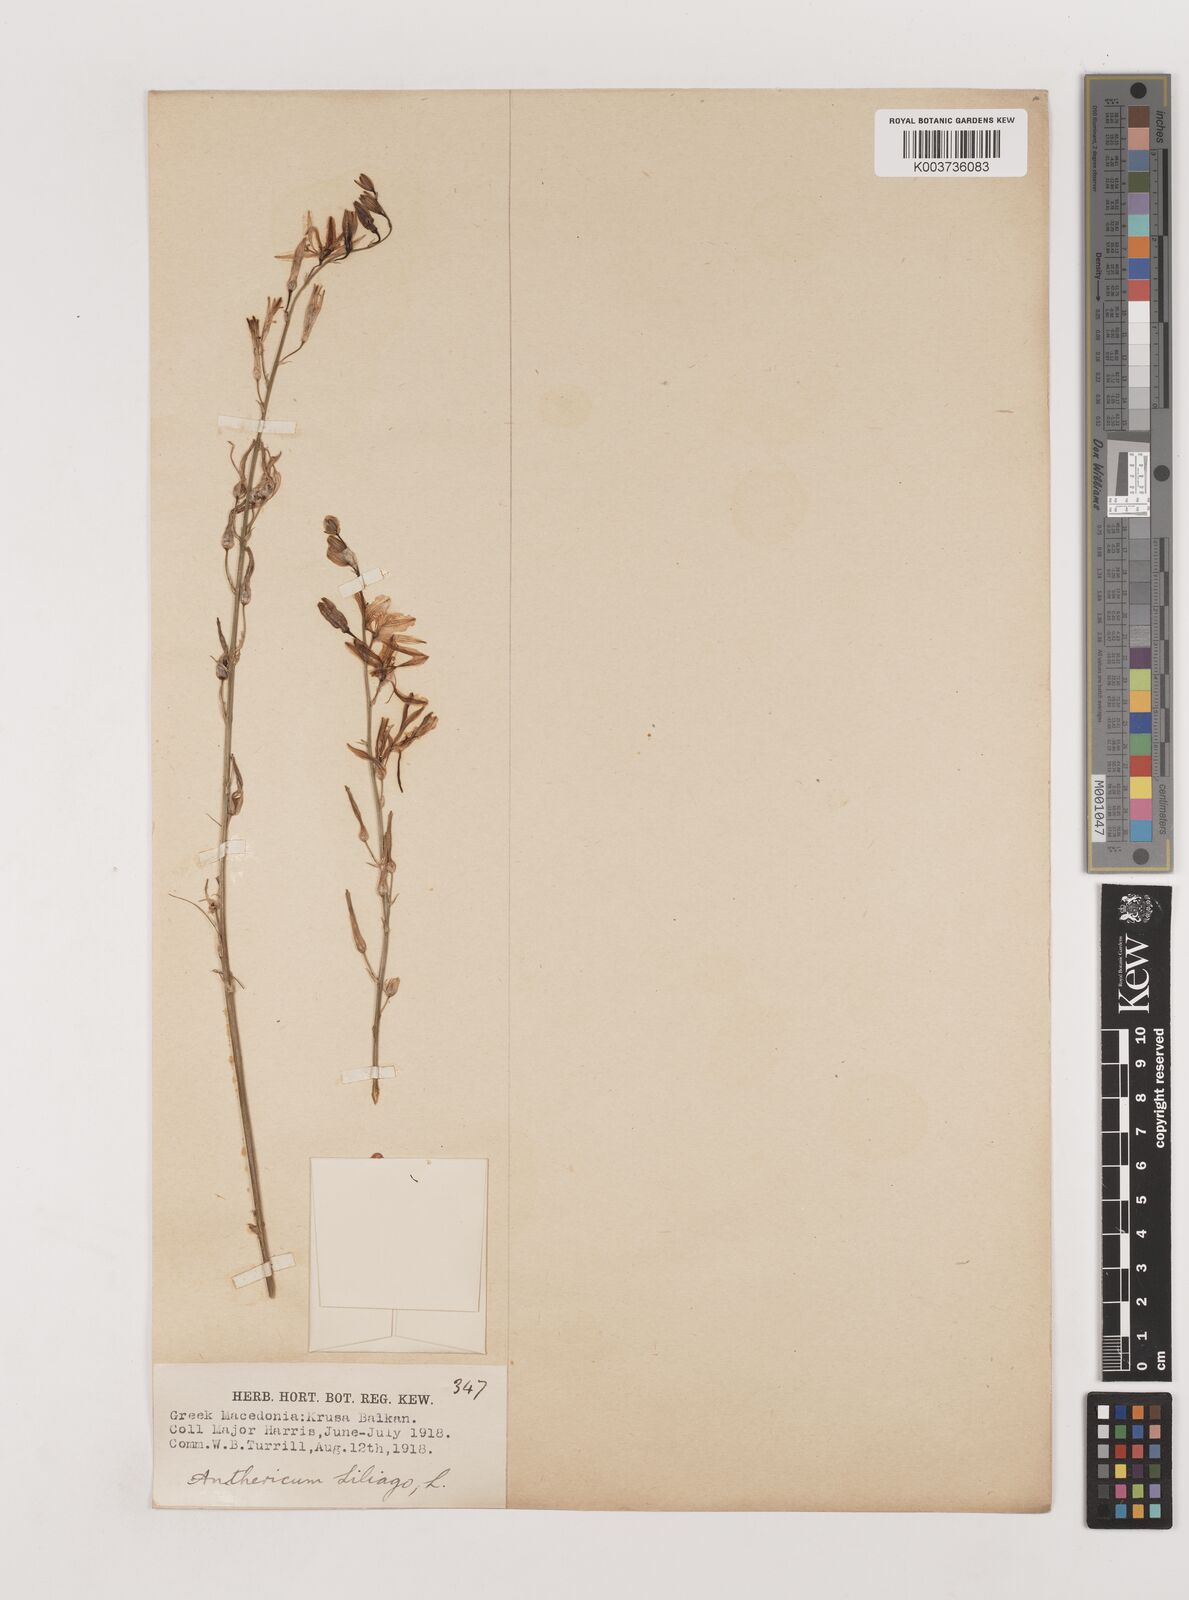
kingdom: Plantae
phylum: Tracheophyta
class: Liliopsida
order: Asparagales
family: Asparagaceae
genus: Anthericum
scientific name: Anthericum liliago
